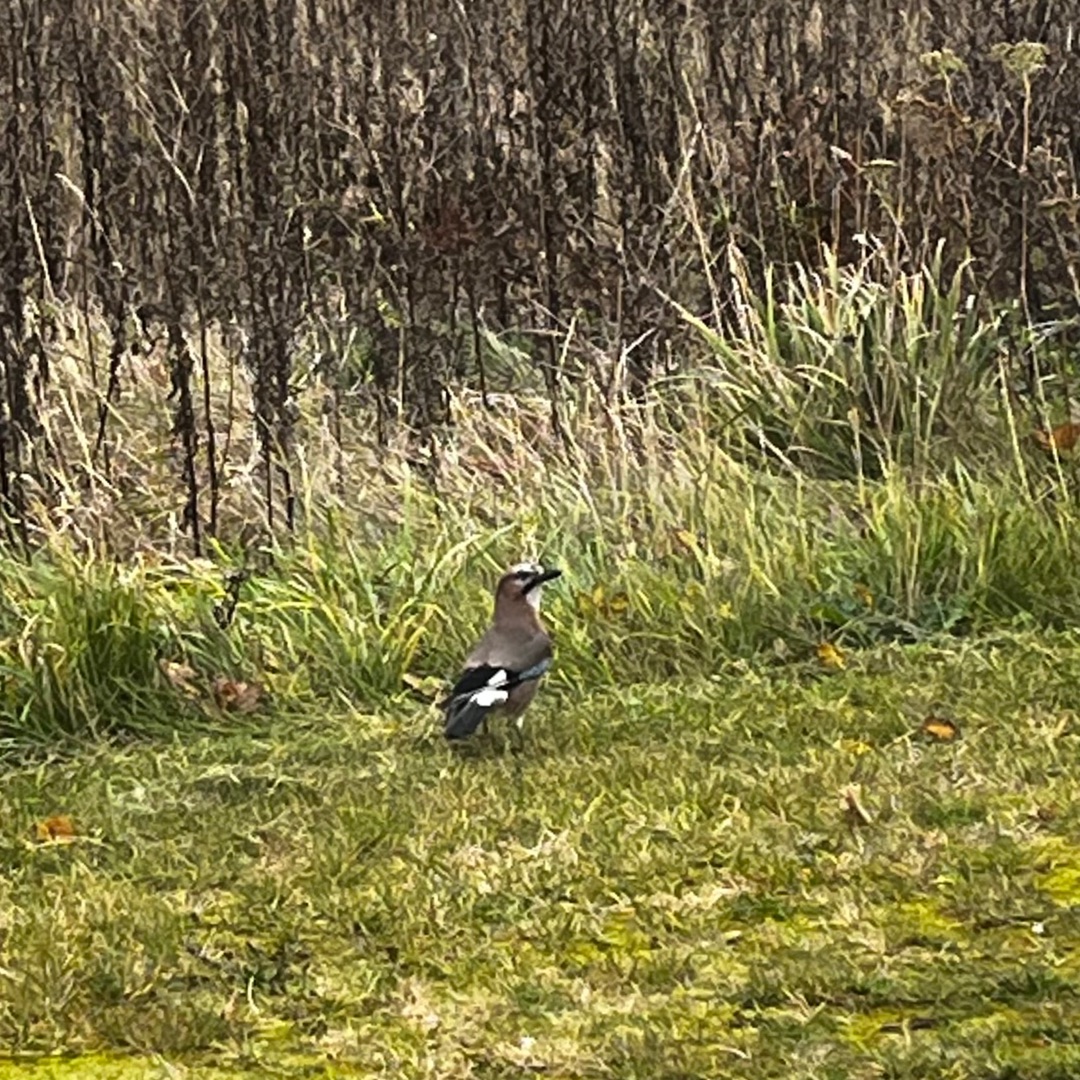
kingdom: Animalia
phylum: Chordata
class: Aves
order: Passeriformes
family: Corvidae
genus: Garrulus
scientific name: Garrulus glandarius
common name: Skovskade
